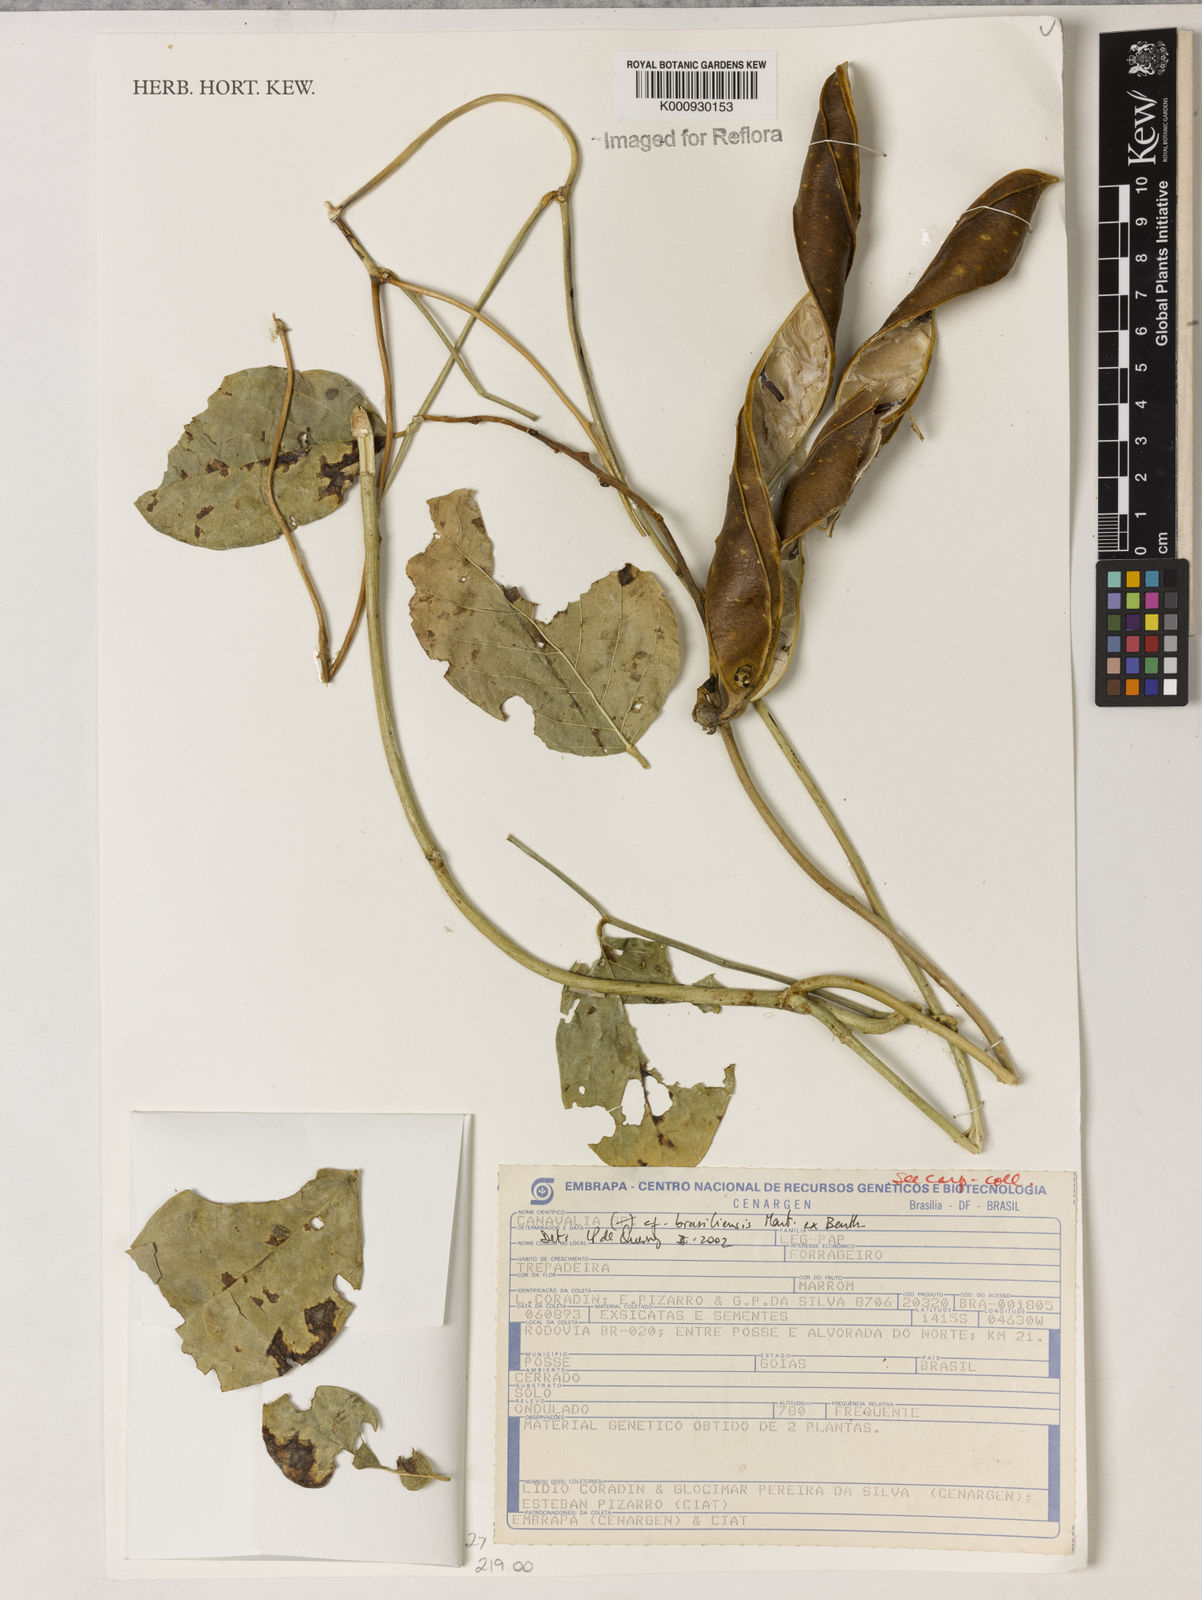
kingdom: Plantae
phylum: Tracheophyta
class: Magnoliopsida
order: Fabales
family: Fabaceae
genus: Canavalia
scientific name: Canavalia brasiliensis
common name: Barbicou-bean
